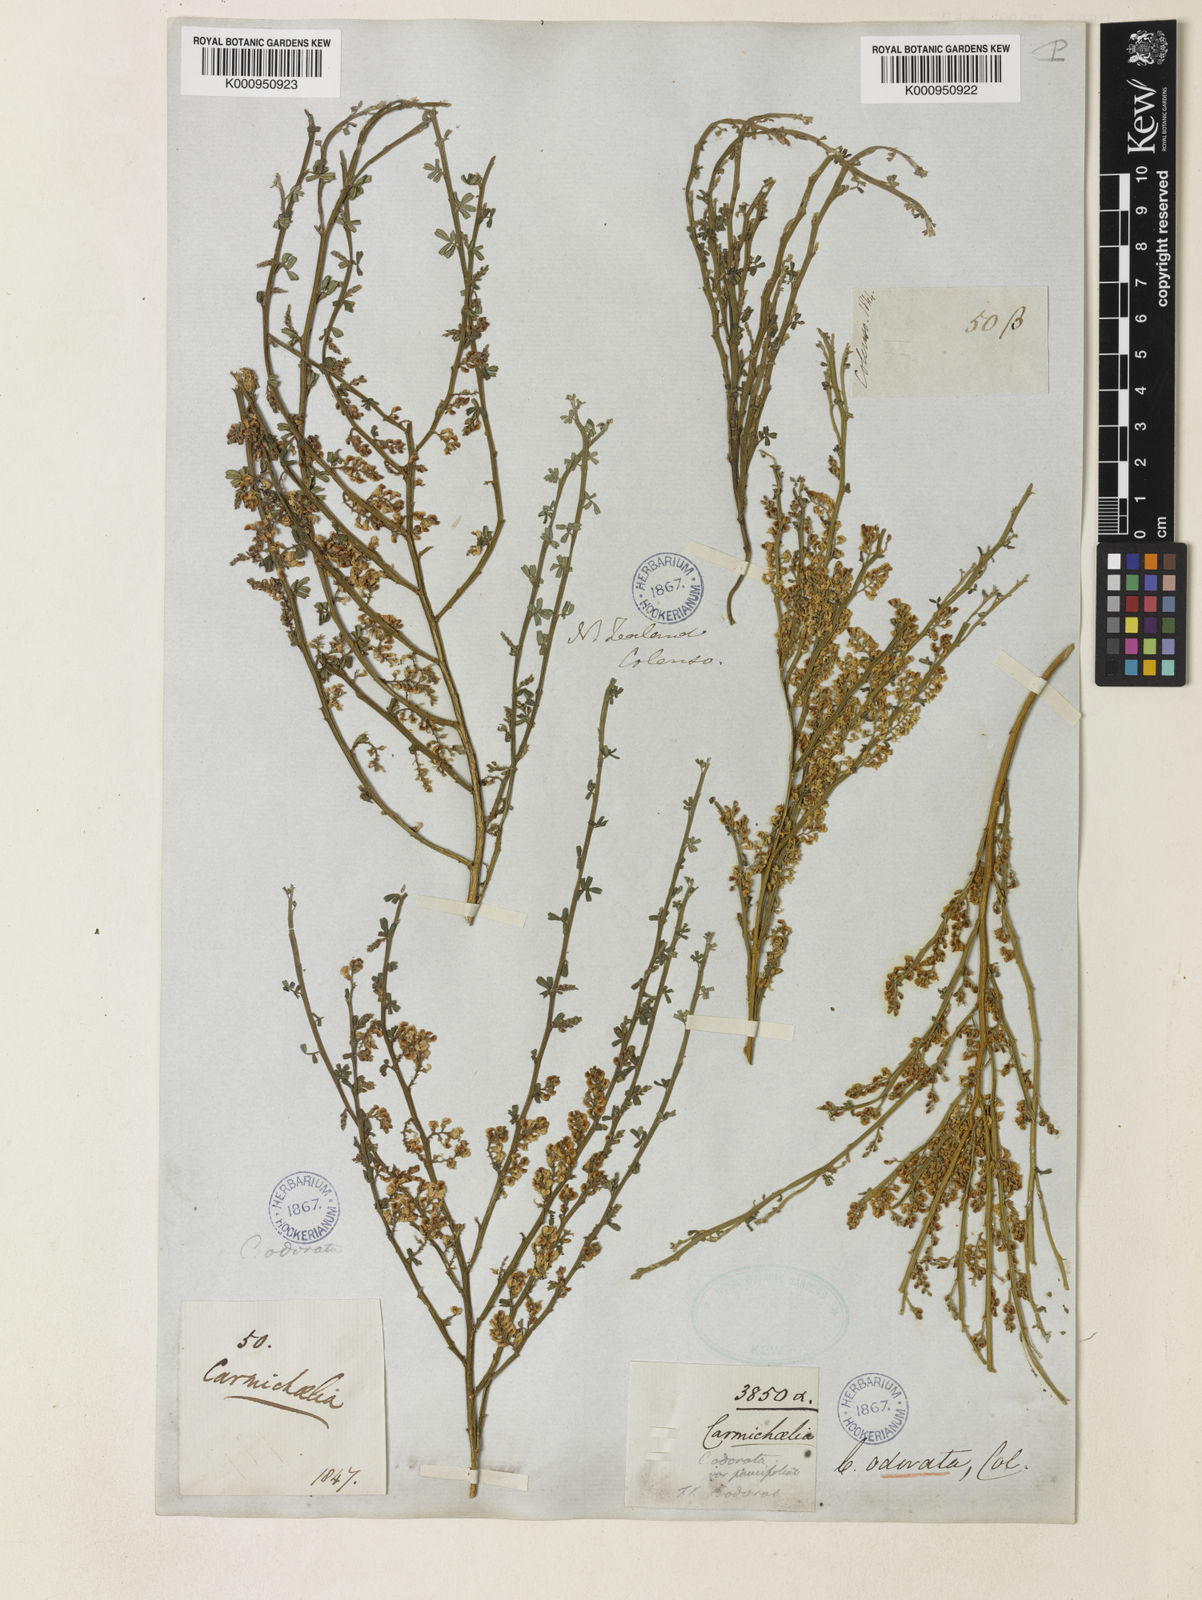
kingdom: Plantae
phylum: Tracheophyta
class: Magnoliopsida
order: Fabales
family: Fabaceae
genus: Carmichaelia
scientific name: Carmichaelia odorata
